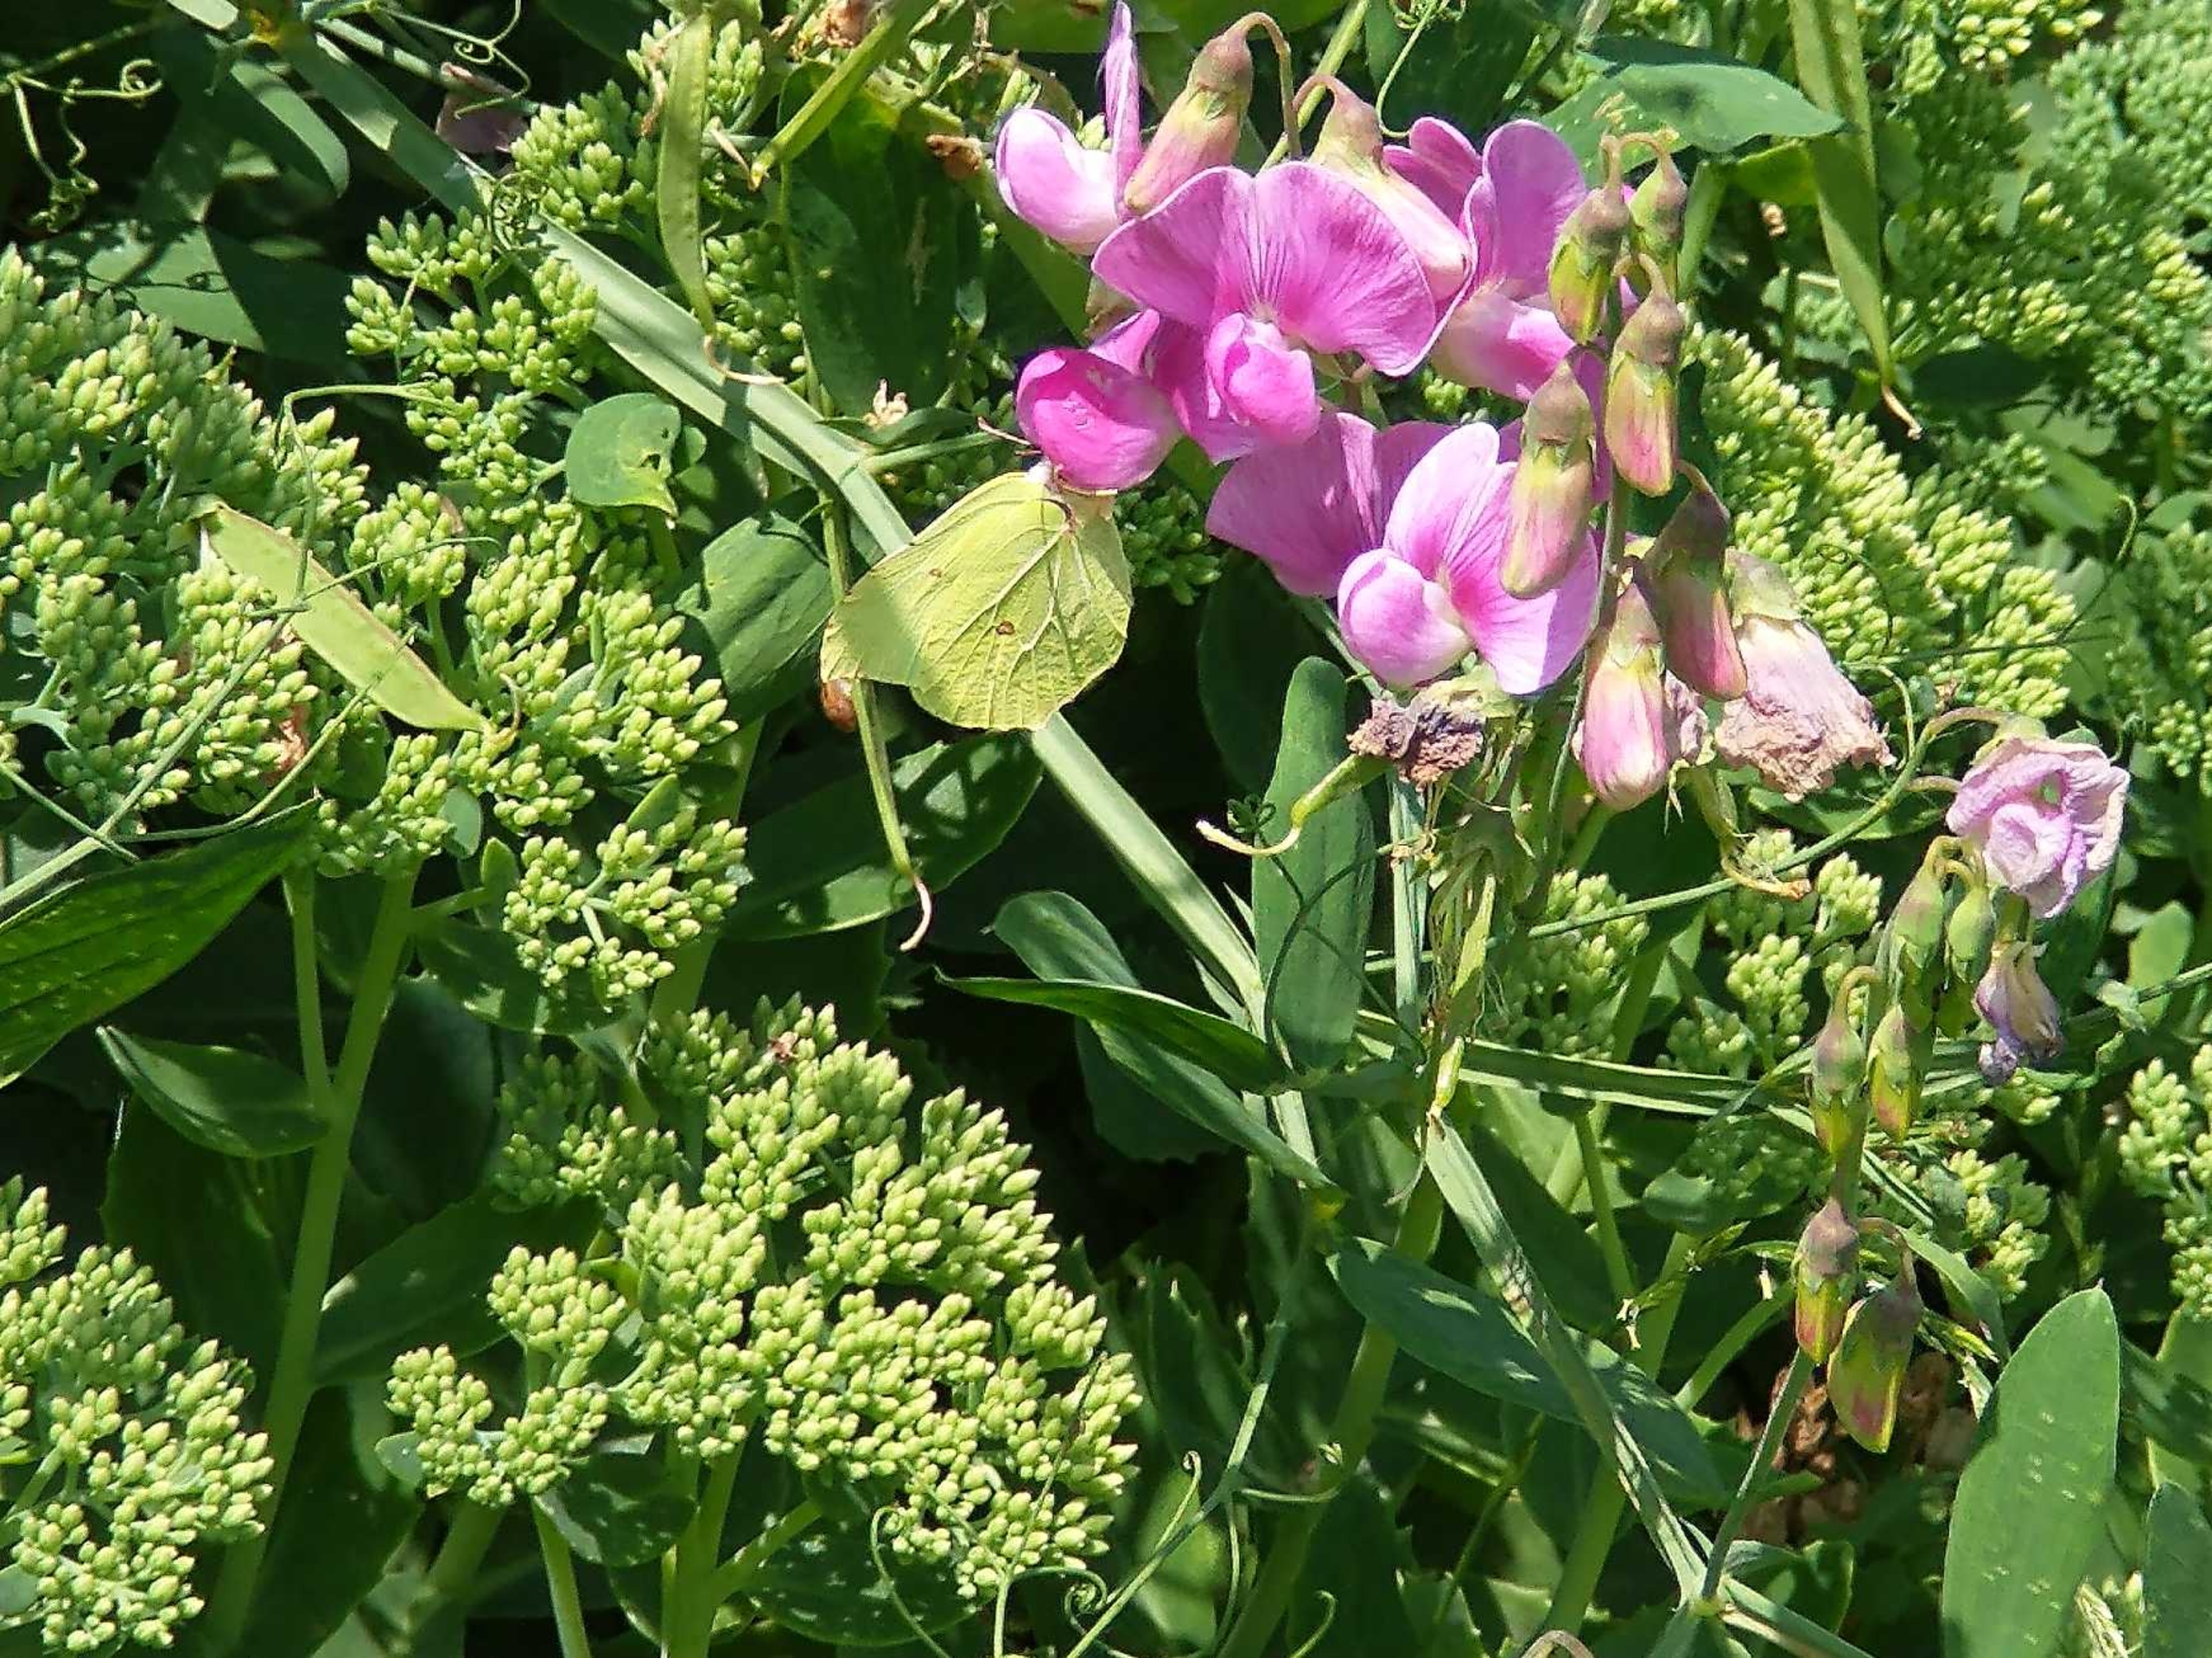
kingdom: Animalia
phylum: Arthropoda
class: Insecta
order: Lepidoptera
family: Pieridae
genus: Gonepteryx
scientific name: Gonepteryx rhamni
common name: Citronsommerfugl
